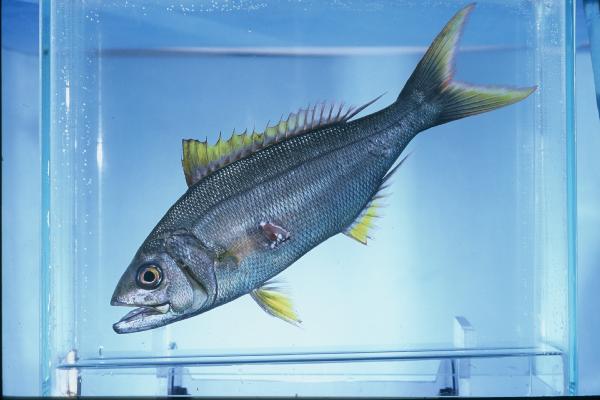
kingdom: Animalia
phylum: Chordata
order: Perciformes
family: Lutjanidae
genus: Aphareus
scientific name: Aphareus furca
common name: Smalltooth jobfish
